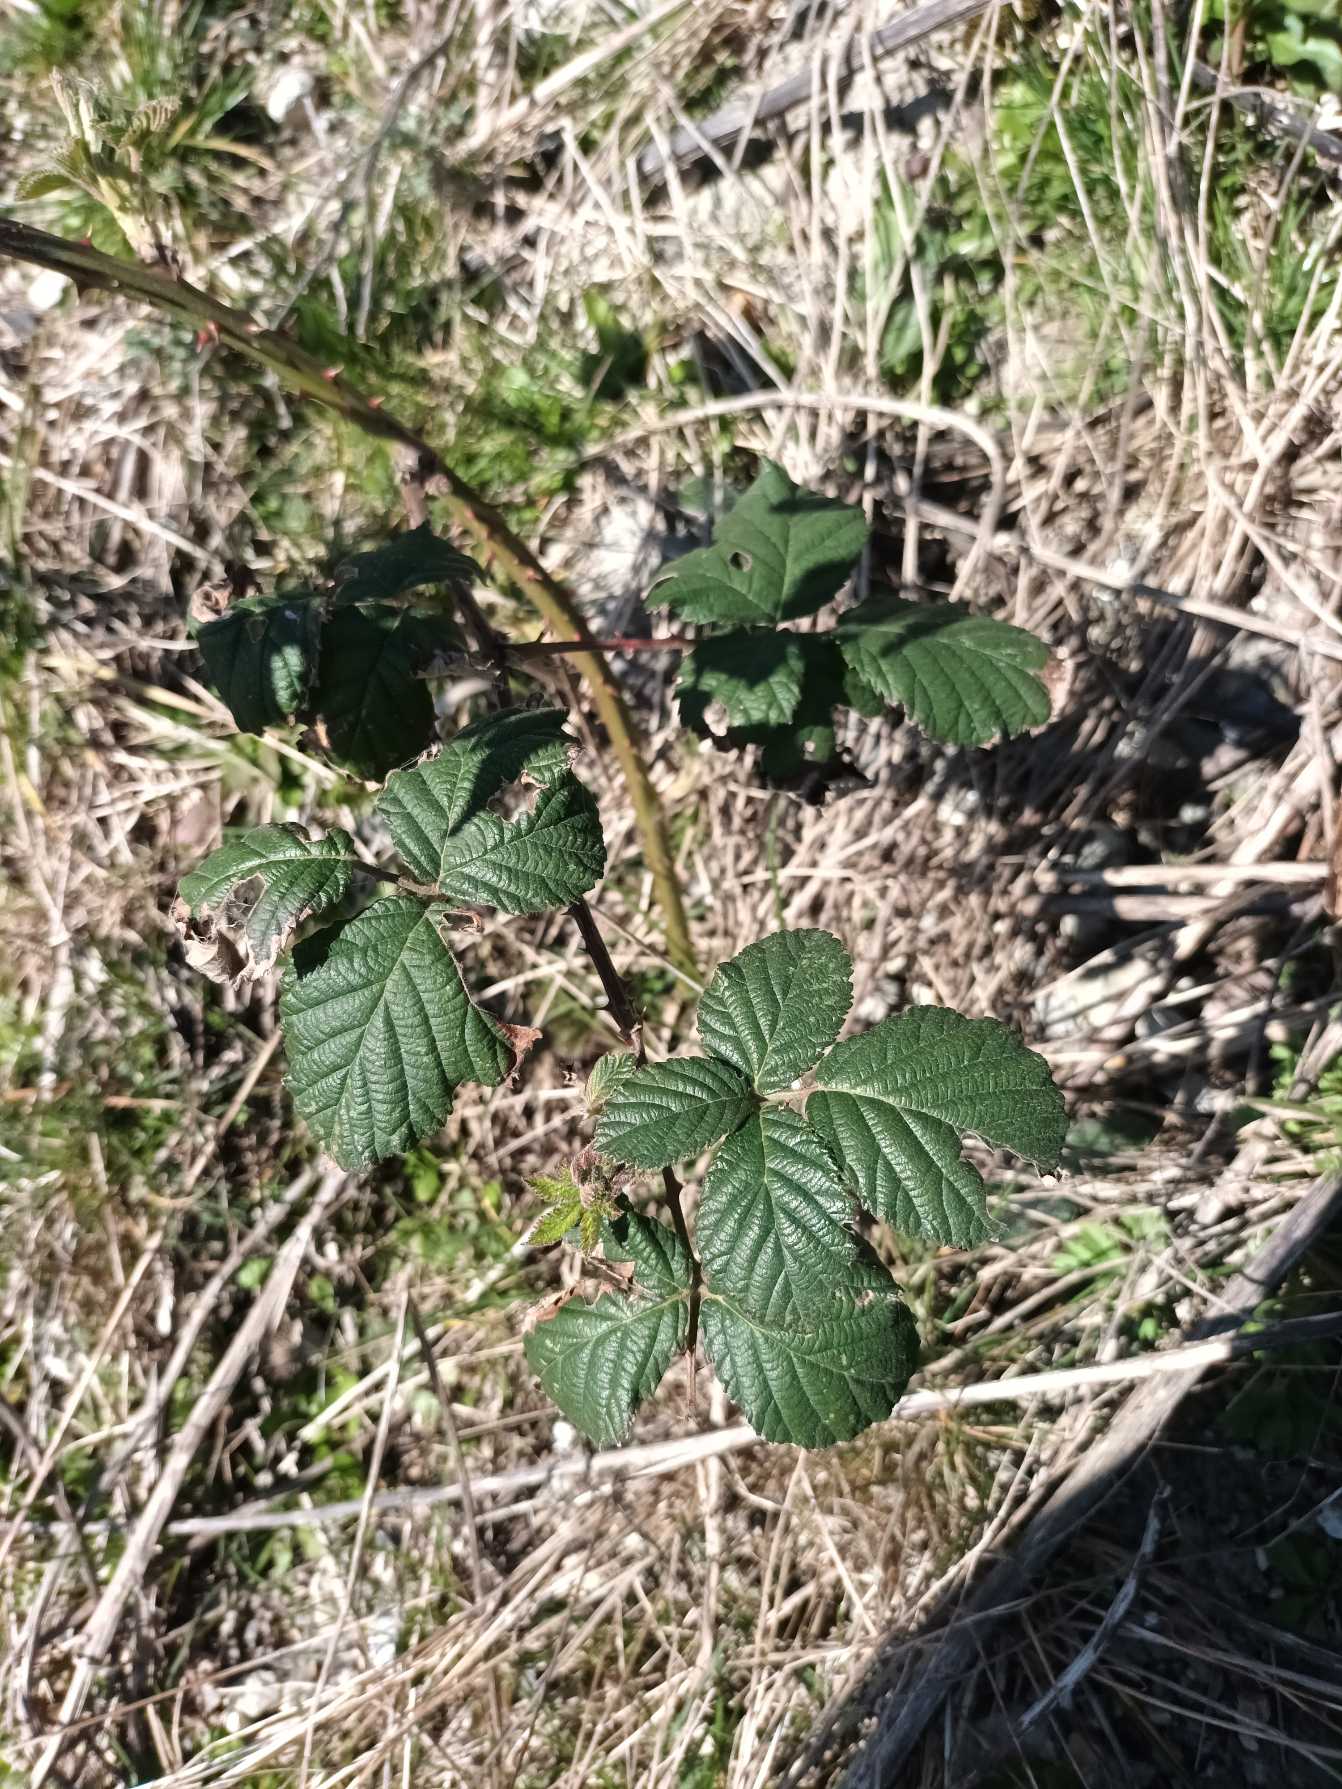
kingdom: Plantae
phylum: Tracheophyta
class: Magnoliopsida
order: Rosales
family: Rosaceae
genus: Rubus
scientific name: Rubus armeniacus
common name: Armensk brombær
